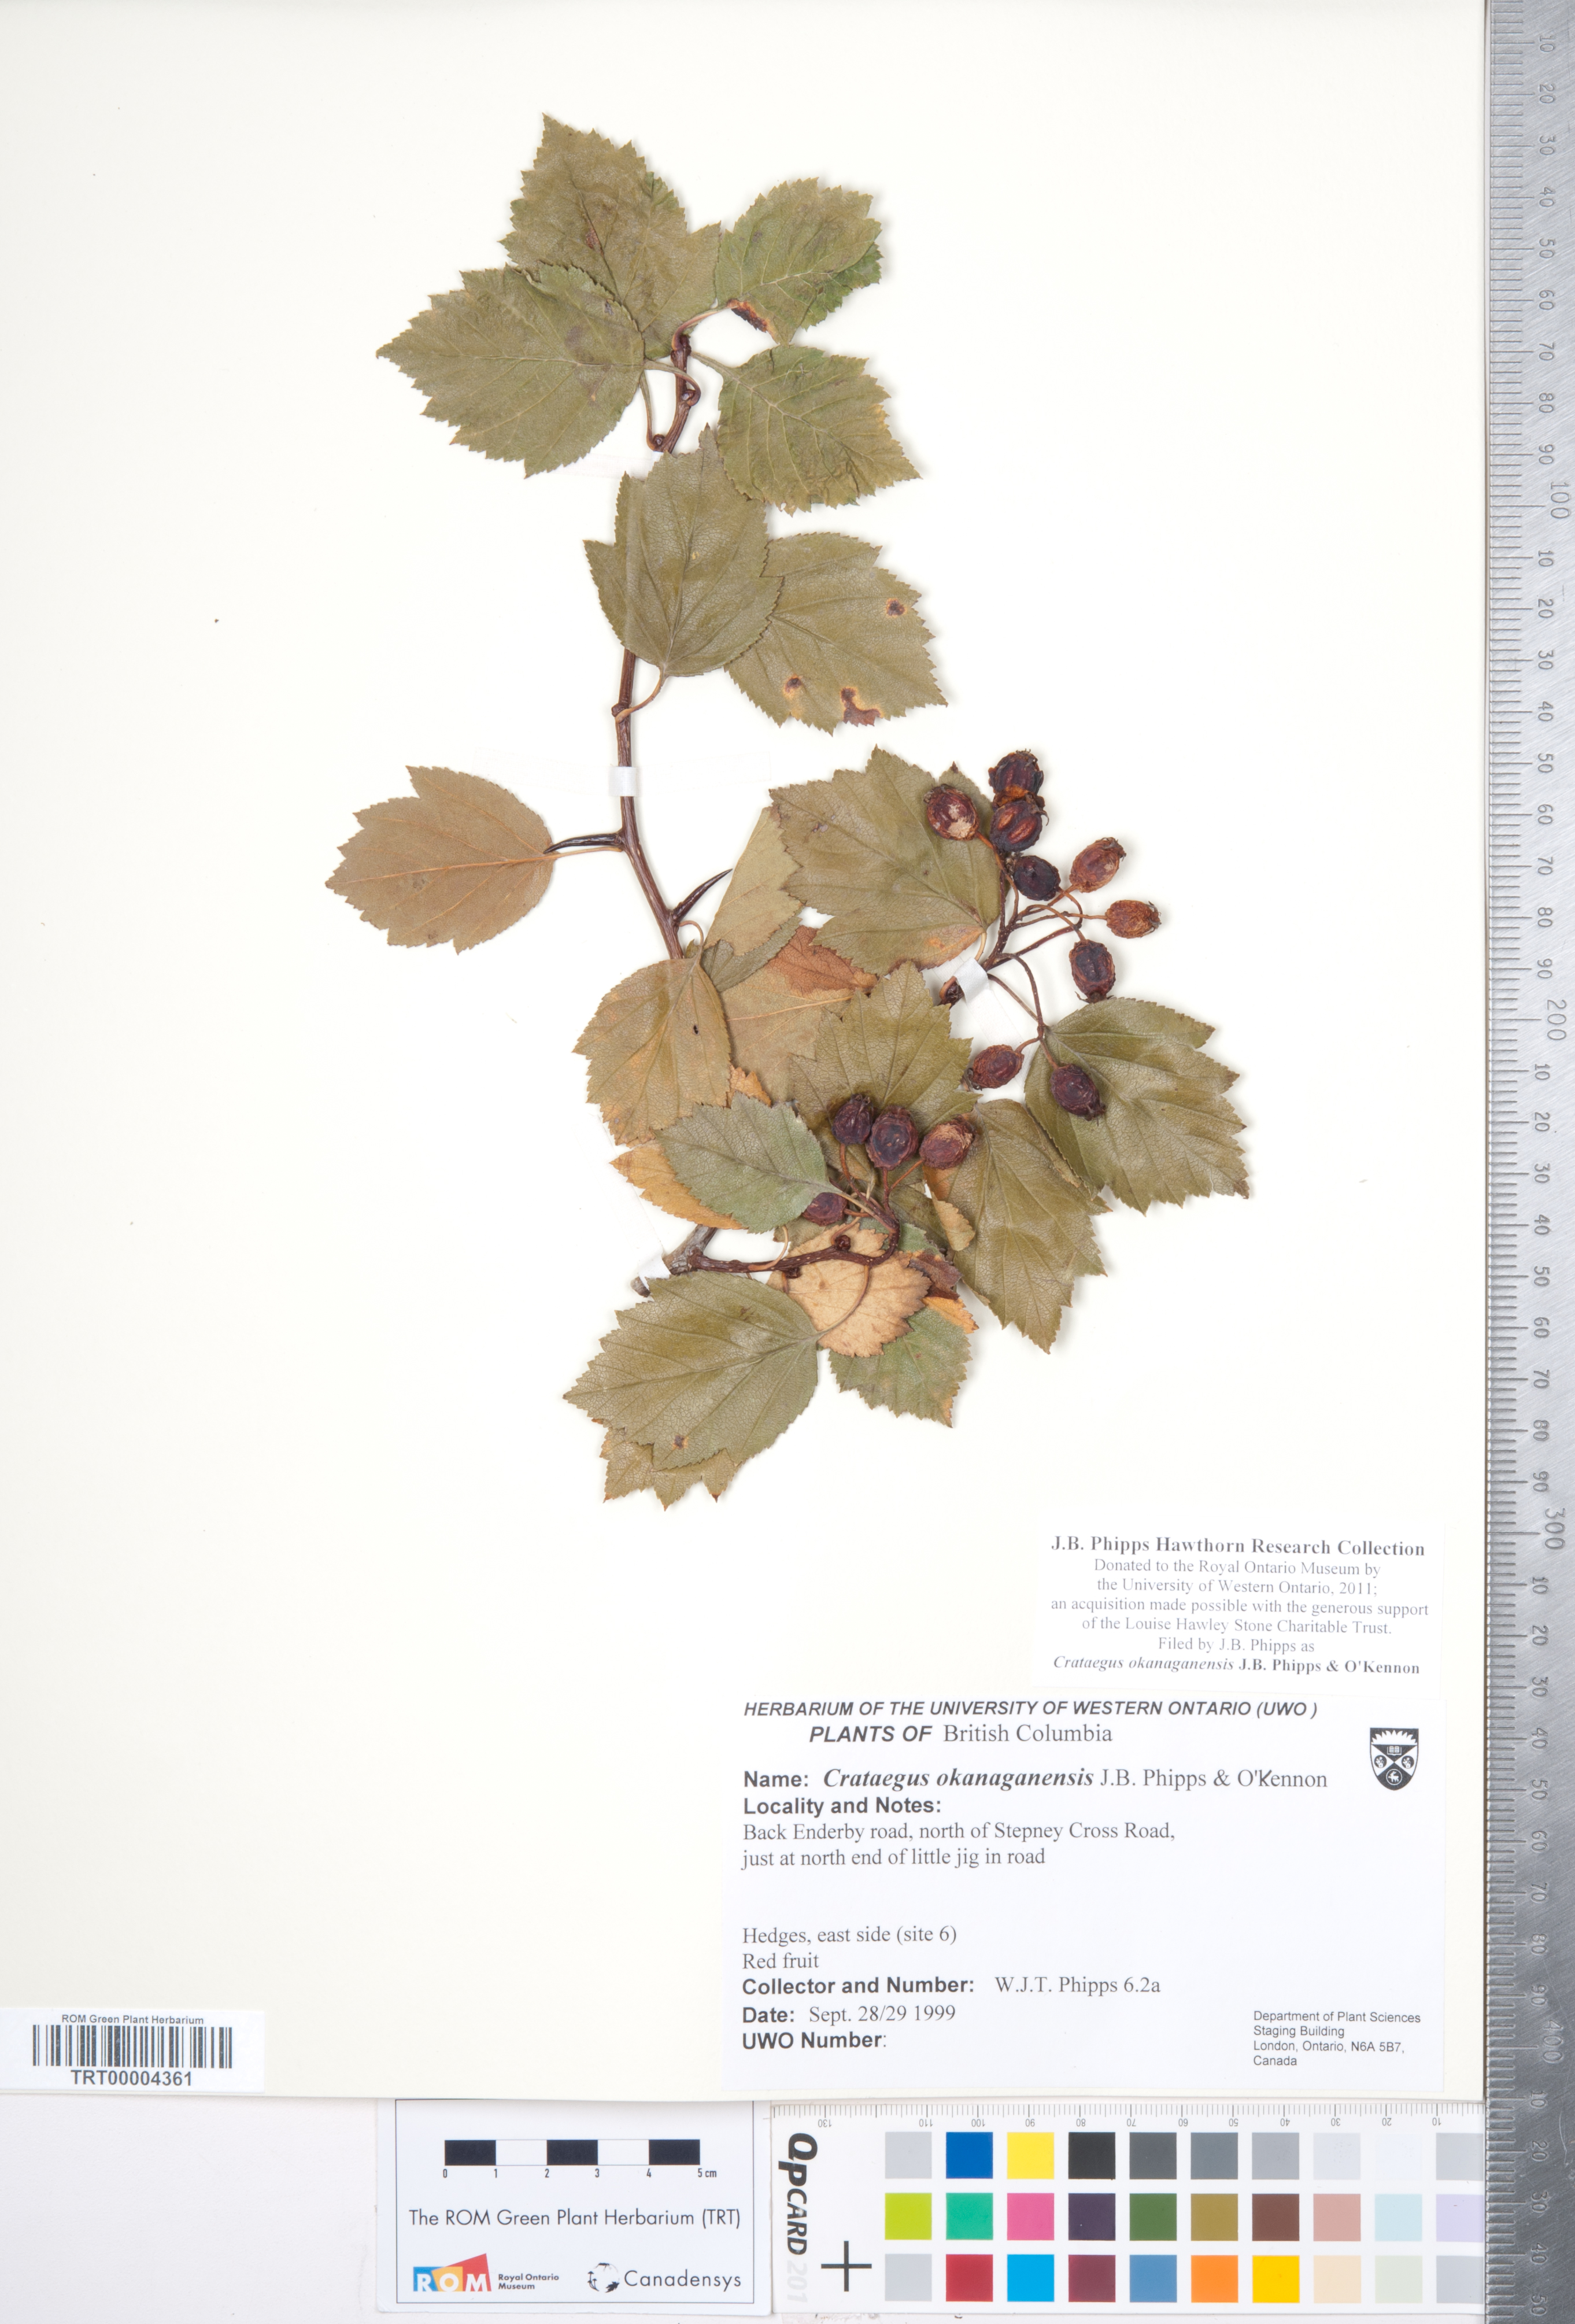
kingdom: Plantae
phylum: Tracheophyta
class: Magnoliopsida
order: Rosales
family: Rosaceae
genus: Crataegus
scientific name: Crataegus okanaganensis
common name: Okanagan valley hawthorn
